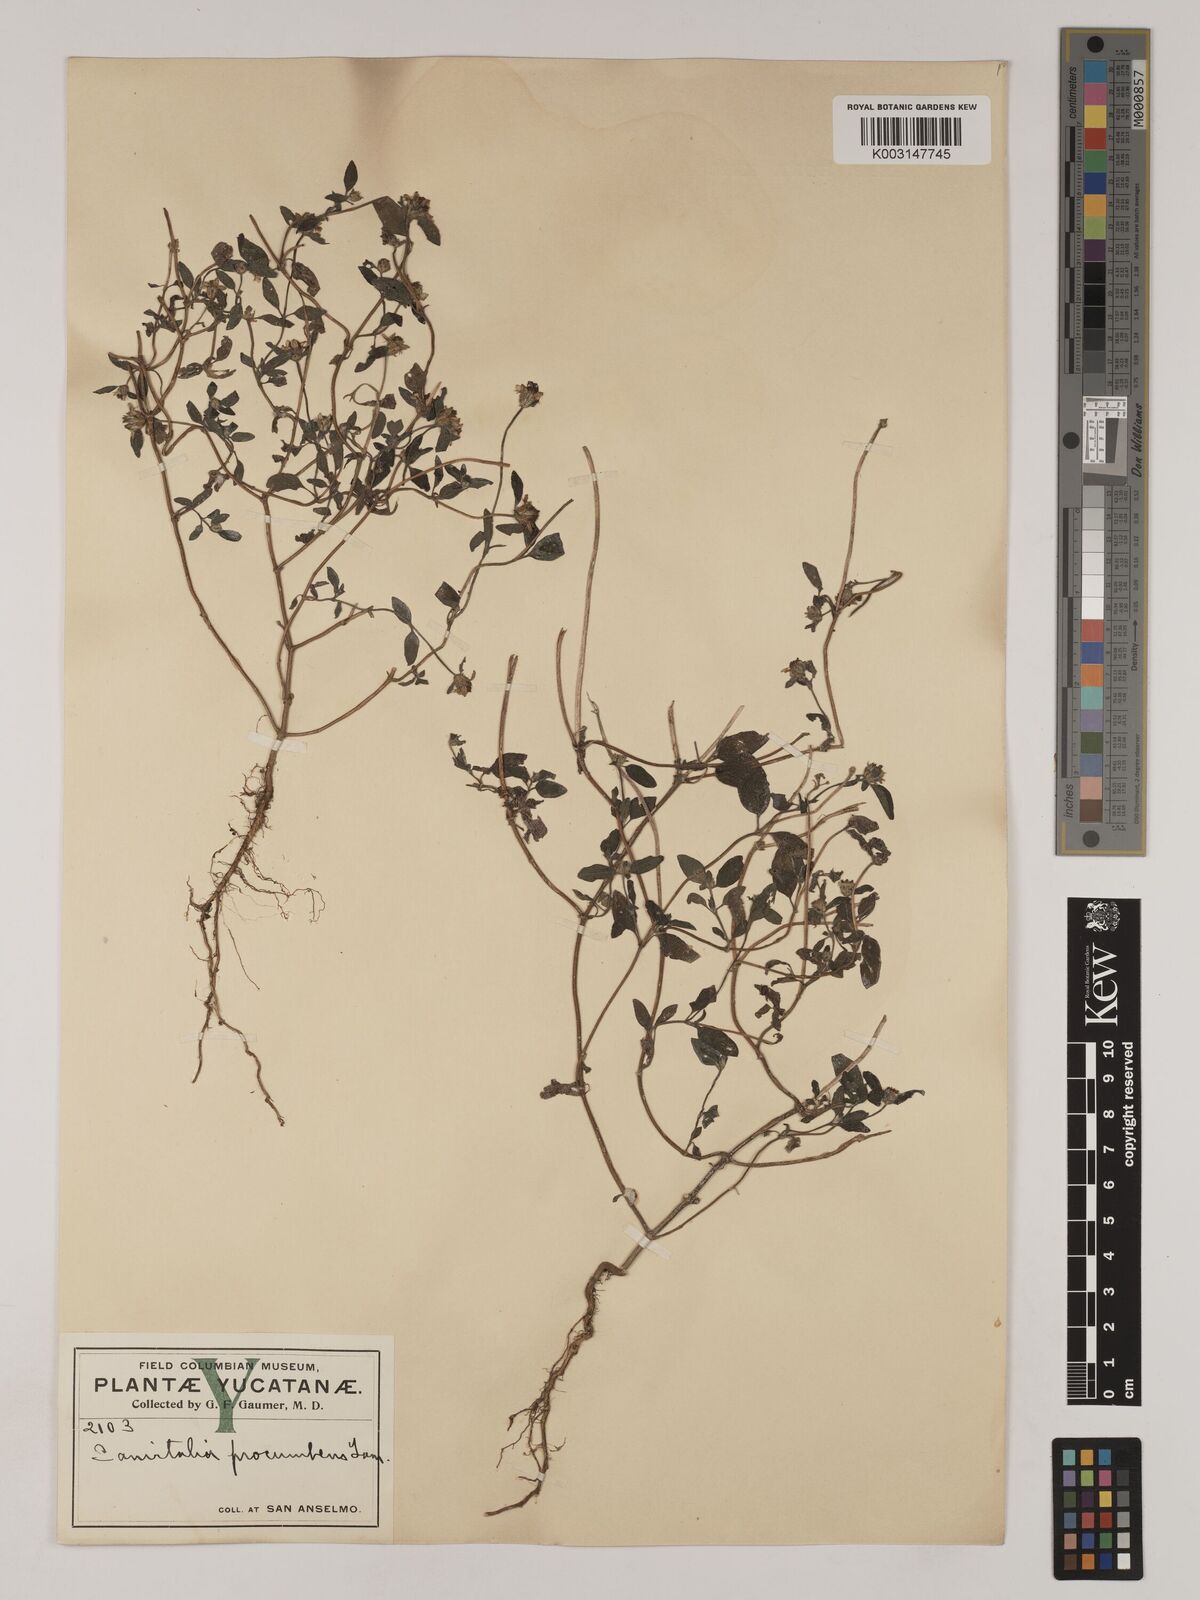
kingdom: Plantae
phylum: Tracheophyta
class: Magnoliopsida
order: Asterales
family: Asteraceae
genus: Sanvitalia
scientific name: Sanvitalia procumbens
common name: Mexican creeping zinnia
